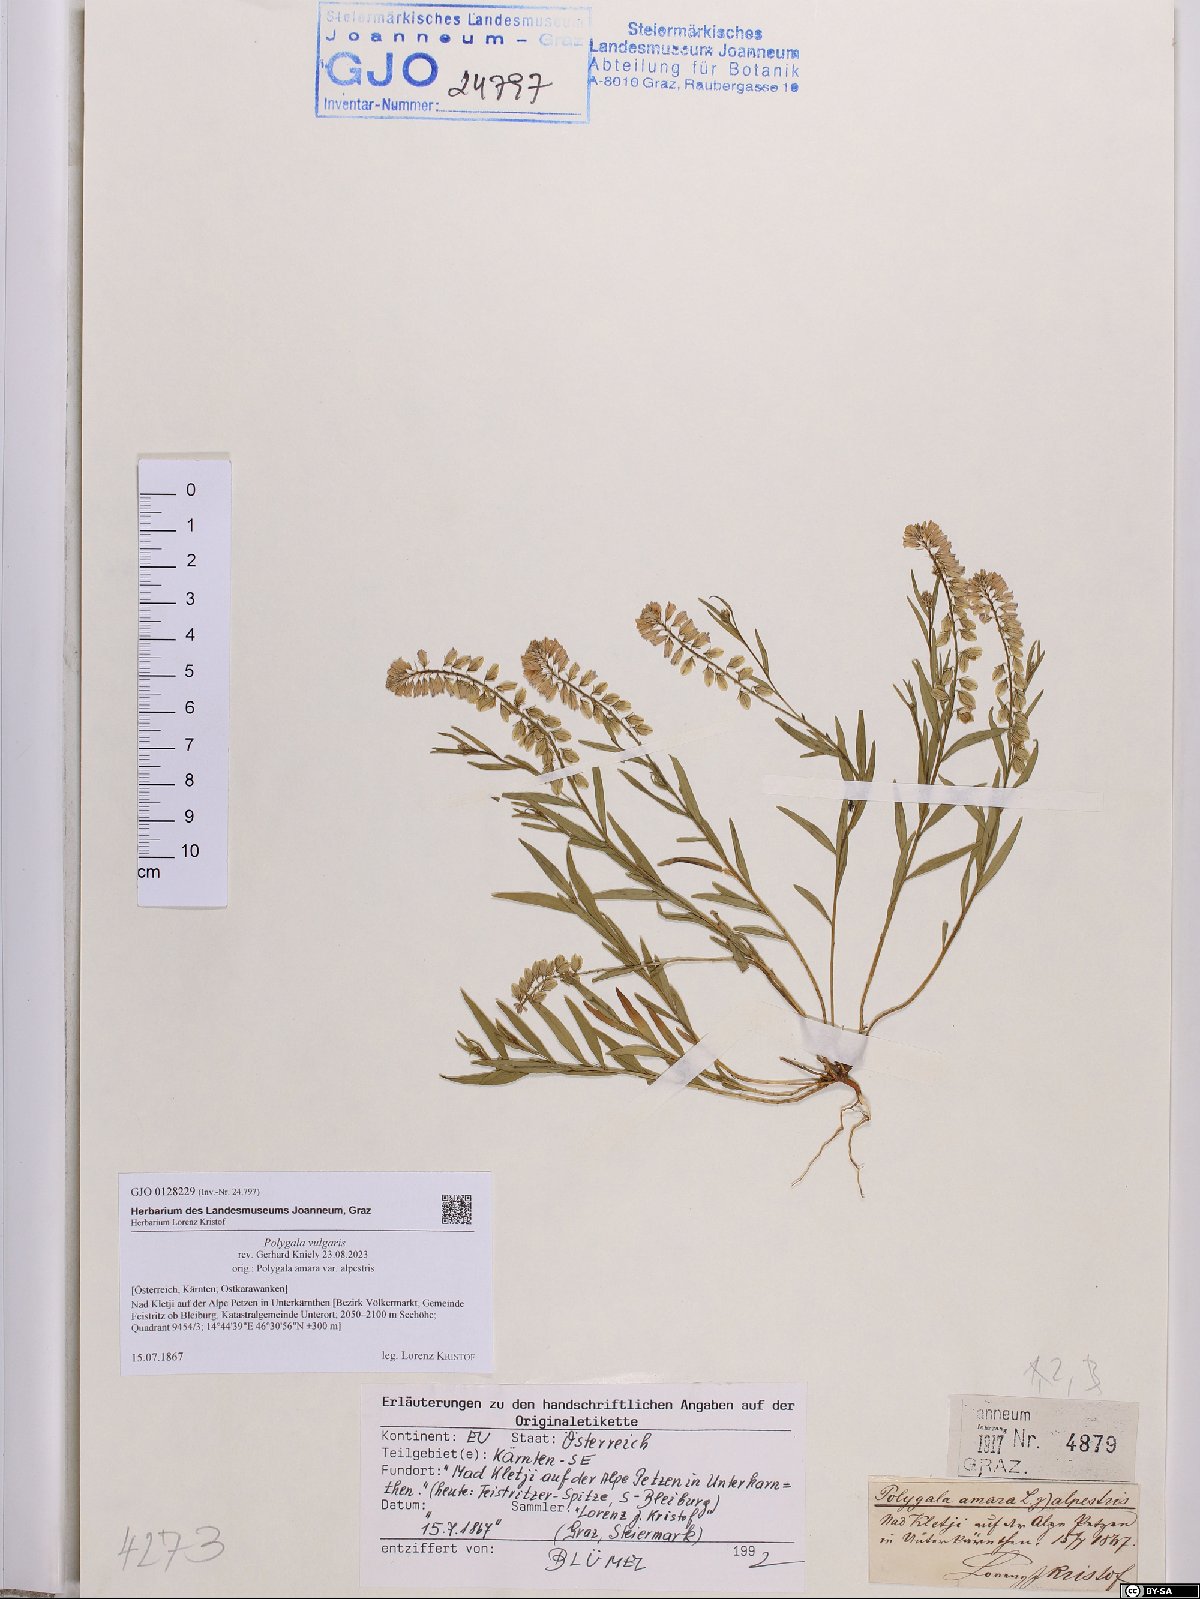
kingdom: Plantae
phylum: Tracheophyta
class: Magnoliopsida
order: Fabales
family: Polygalaceae
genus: Polygala
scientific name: Polygala vulgaris
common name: Common milkwort
